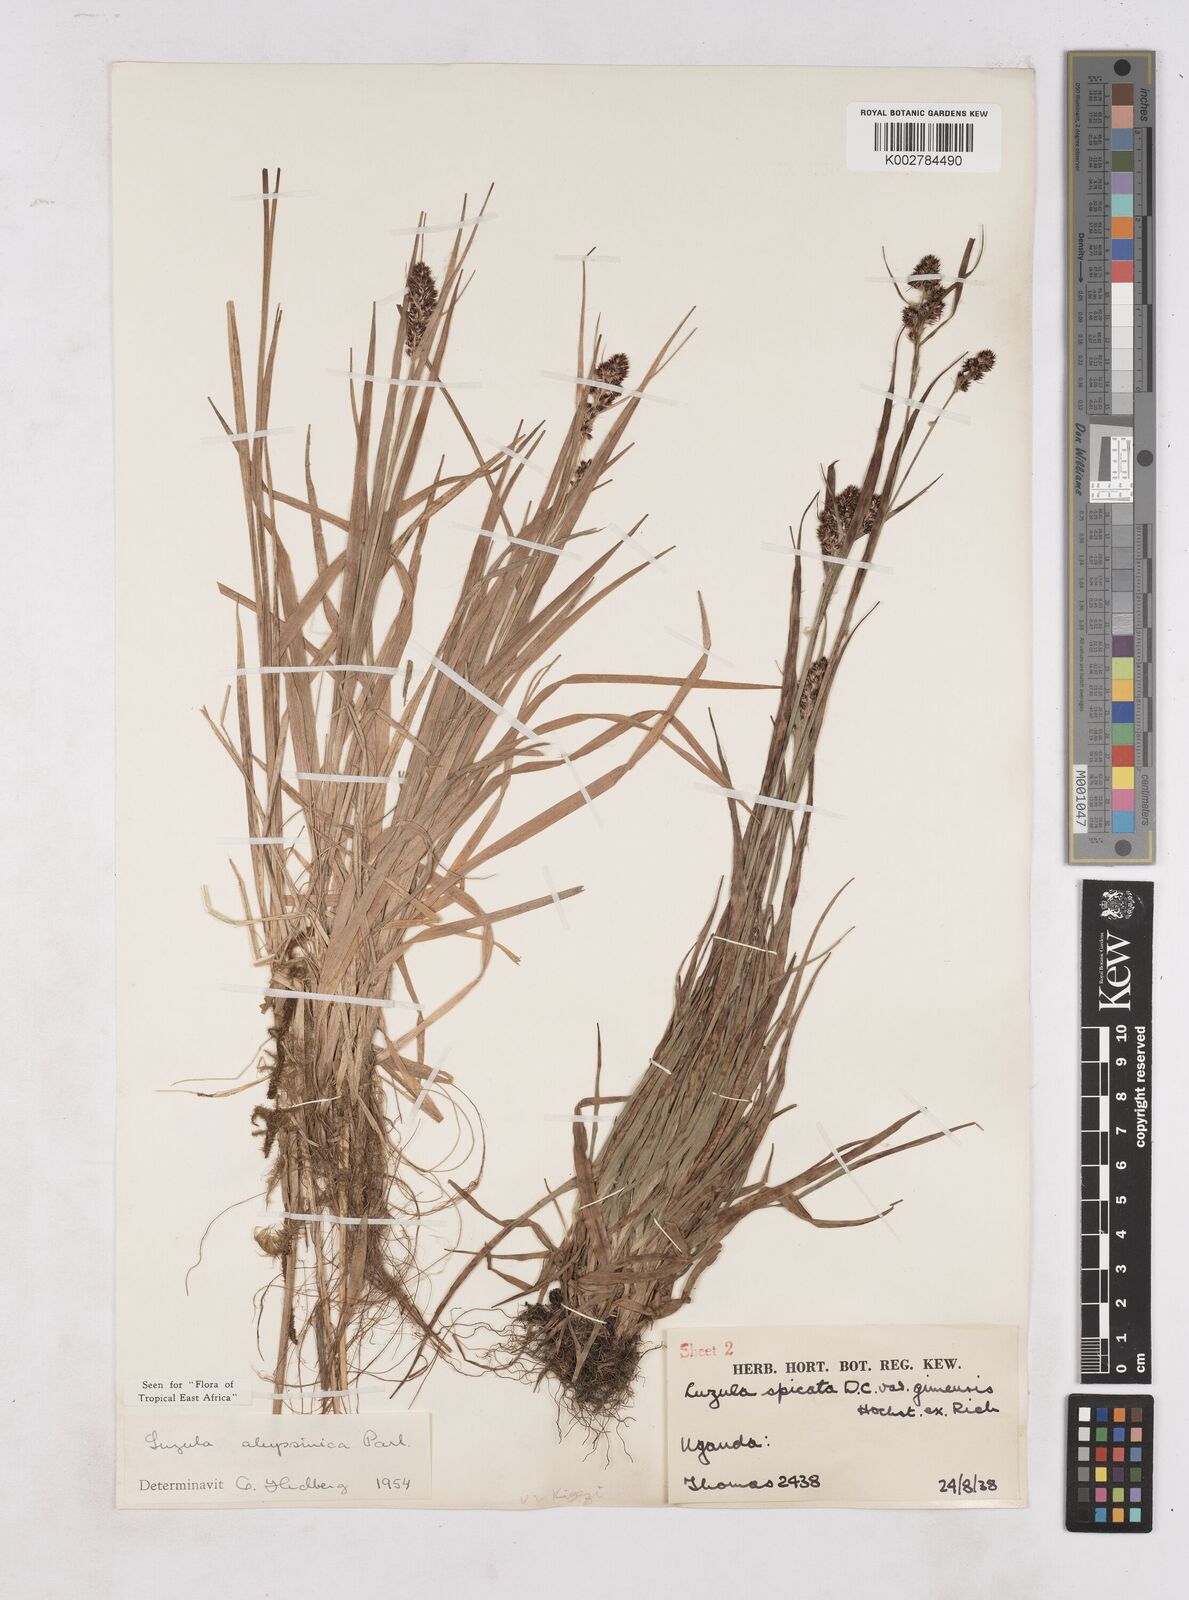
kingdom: Plantae
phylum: Tracheophyta
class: Liliopsida
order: Poales
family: Juncaceae
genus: Luzula
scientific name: Luzula abyssinica
